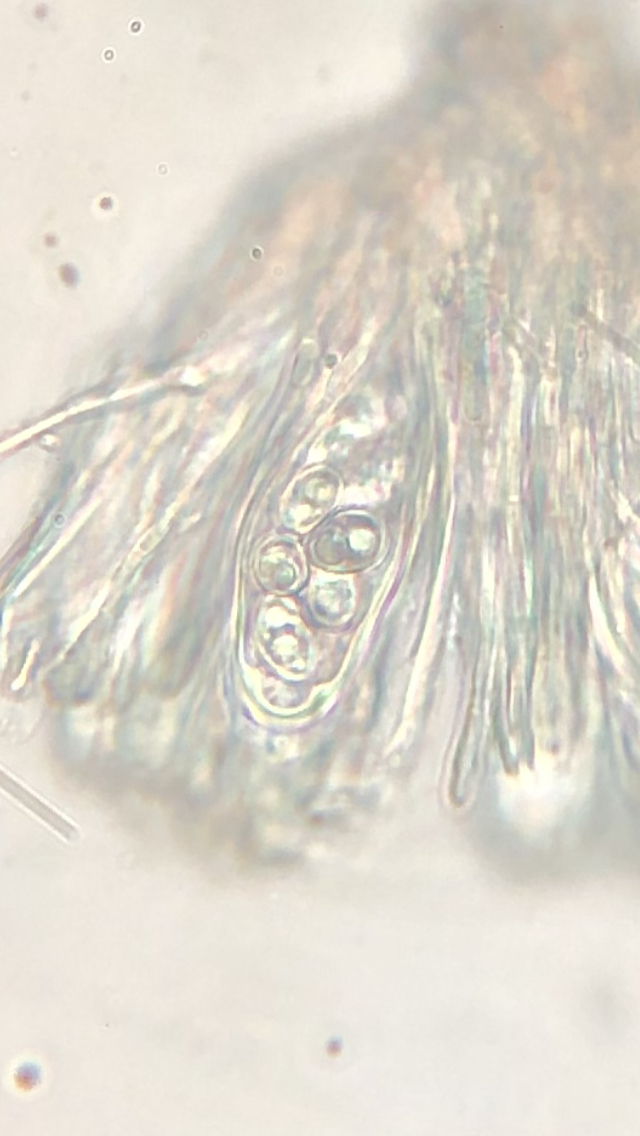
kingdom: Fungi
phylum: Ascomycota
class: Lecanoromycetes
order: Lecanorales
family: Lecanoraceae
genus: Lecidella
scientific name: Lecidella elaeochroma
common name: grågrøn skivelav
